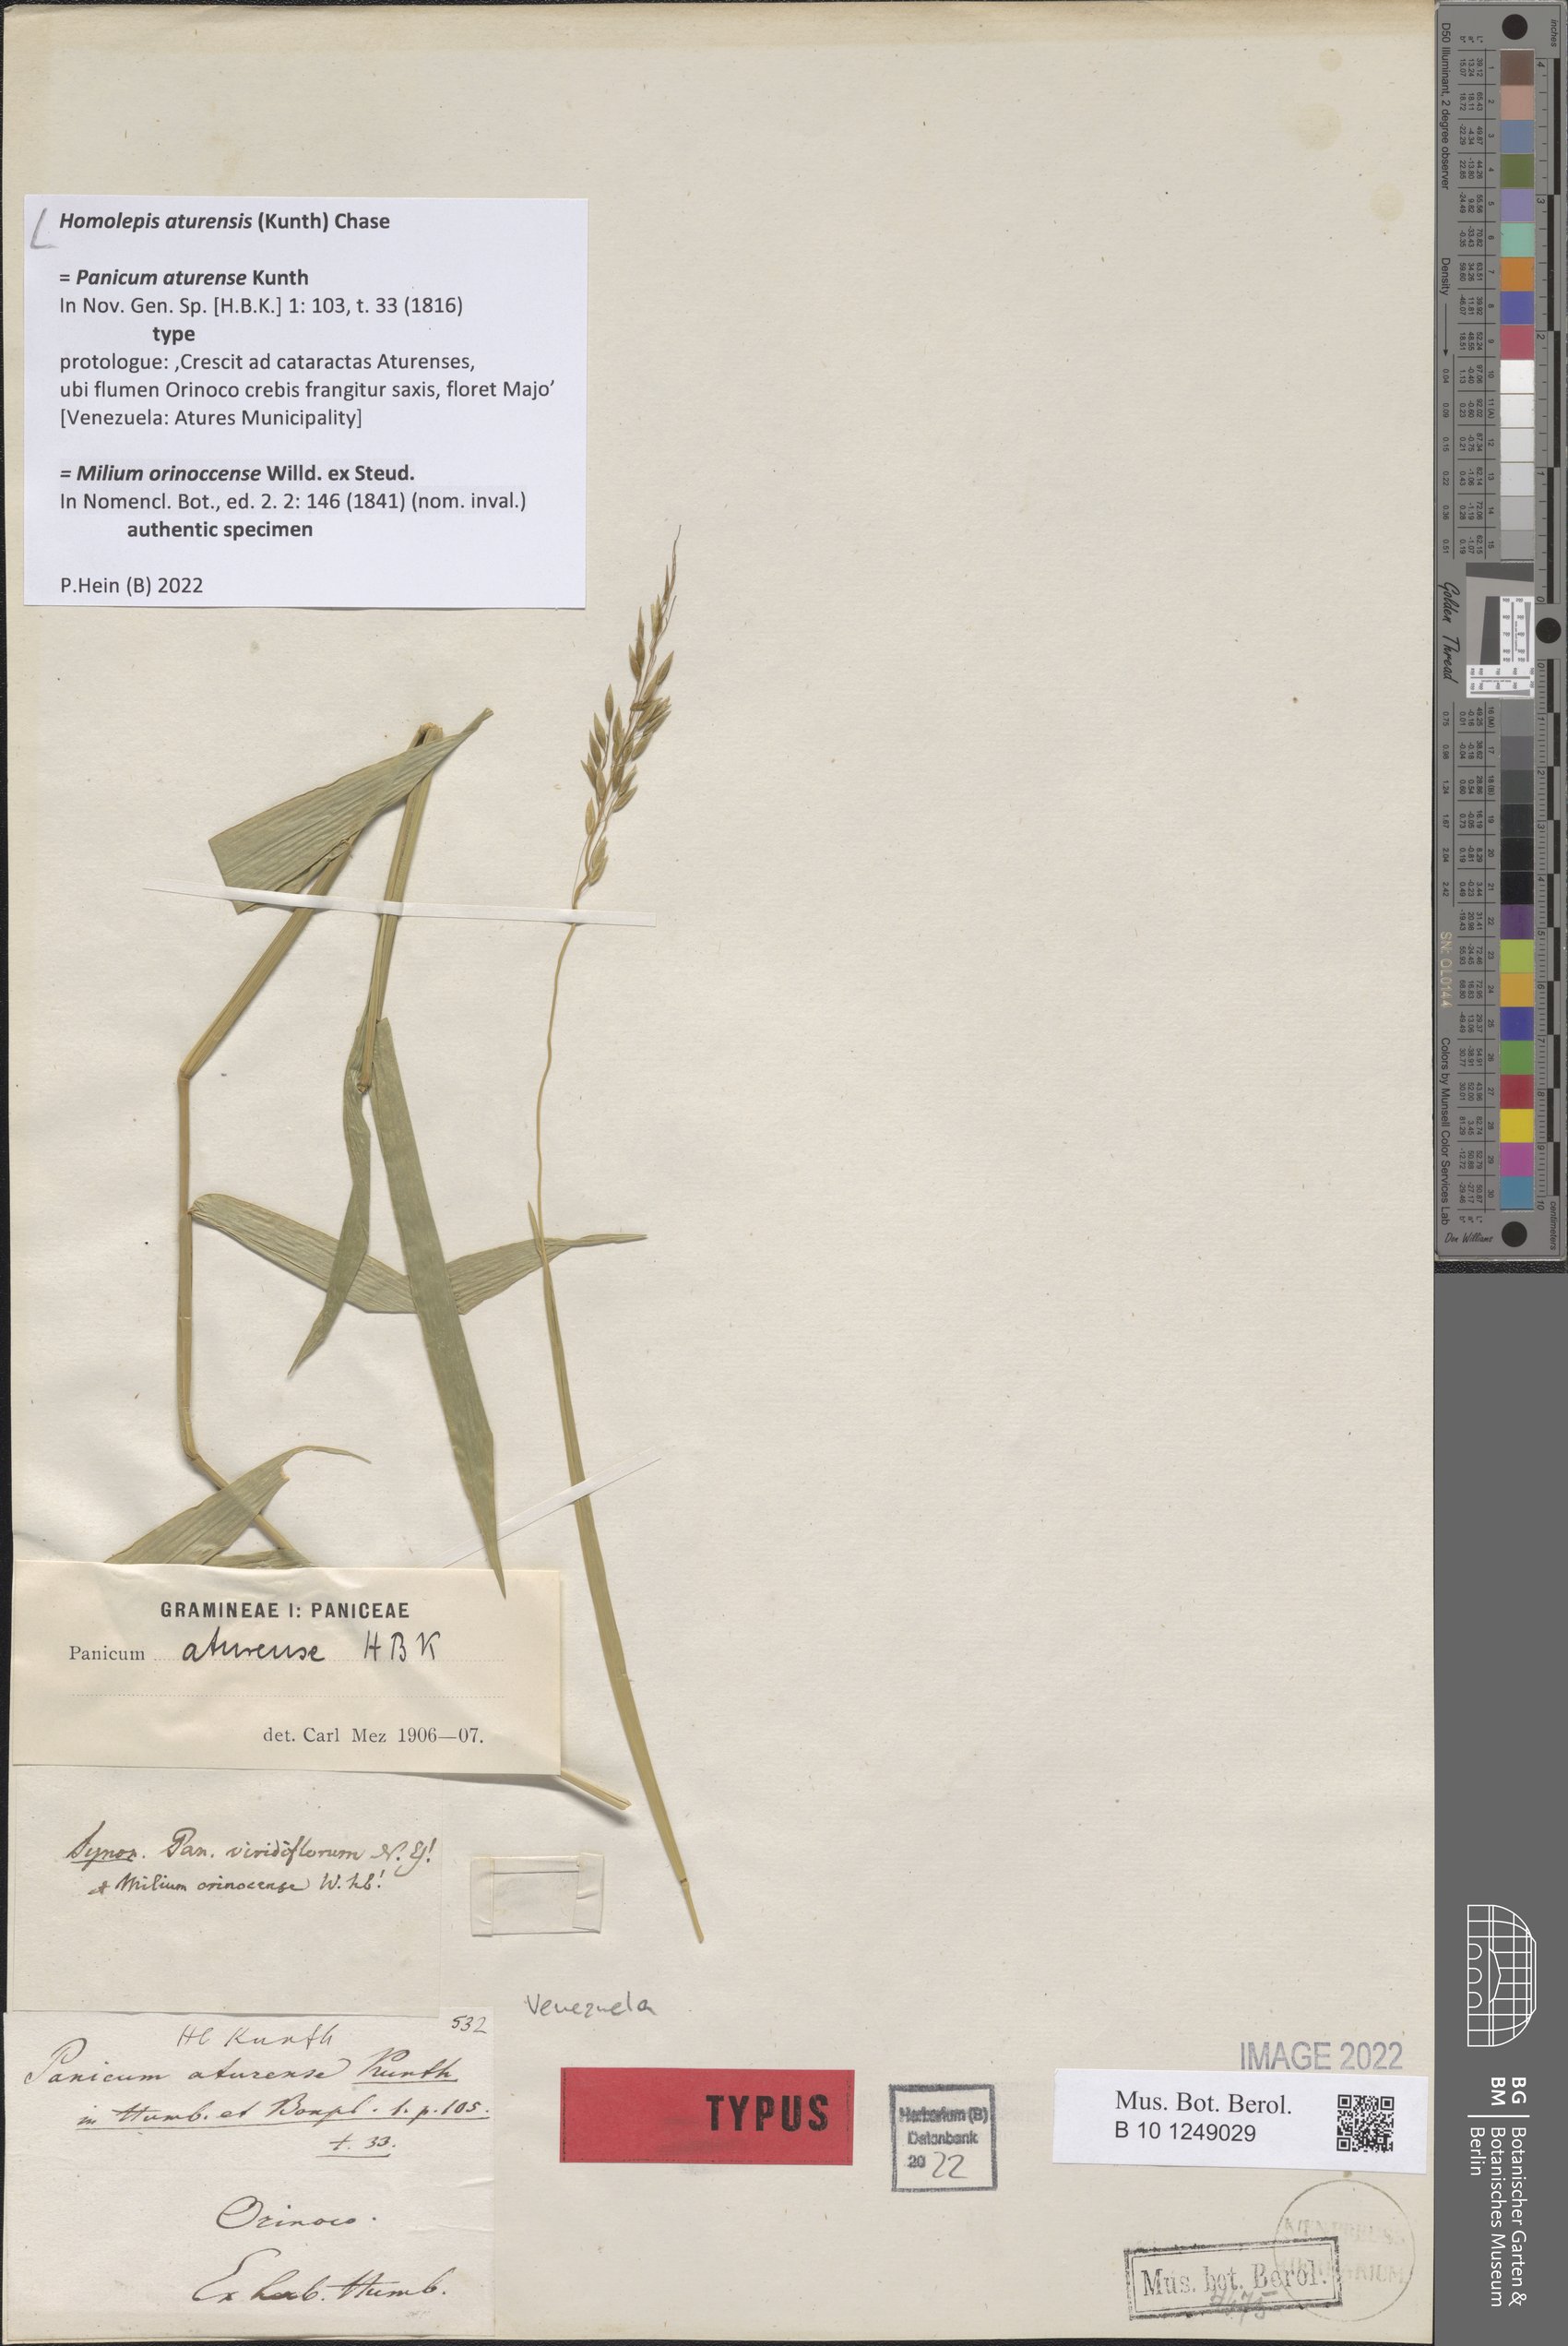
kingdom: Plantae
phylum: Tracheophyta
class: Liliopsida
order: Poales
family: Poaceae
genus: Homolepis
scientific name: Homolepis aturensis
